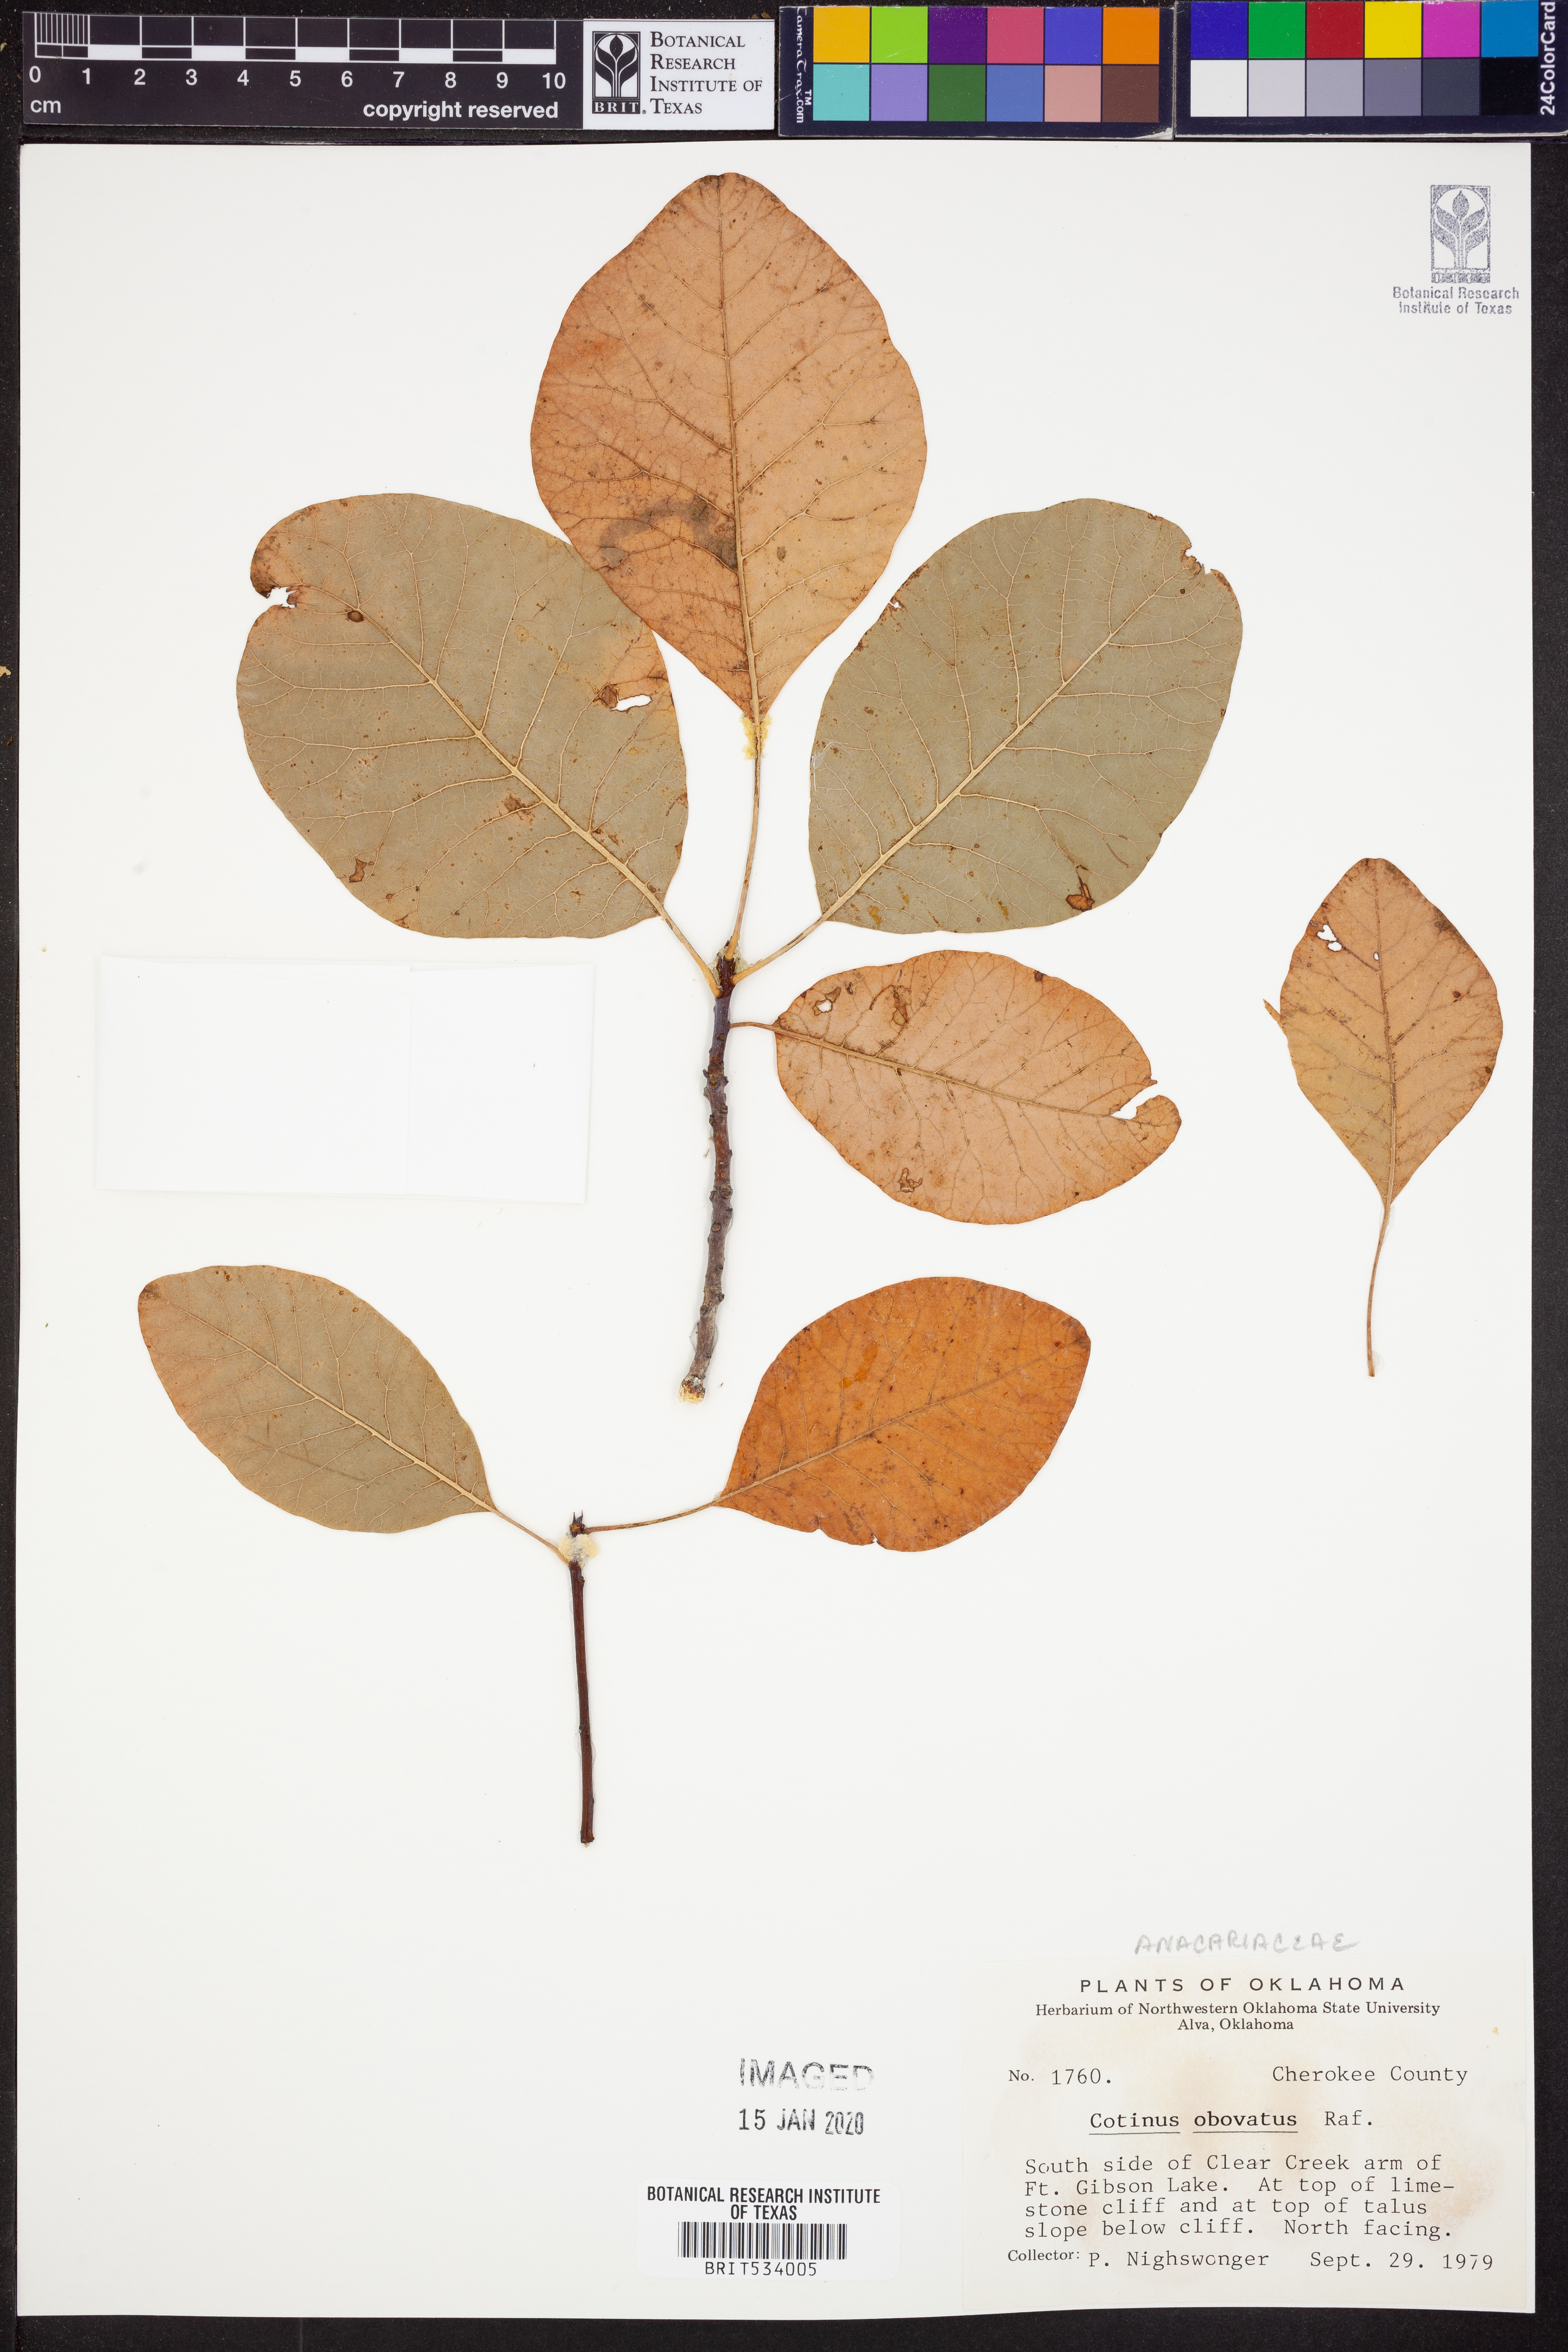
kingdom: Plantae
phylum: Tracheophyta
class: Magnoliopsida
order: Sapindales
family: Anacardiaceae
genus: Cotinus
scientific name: Cotinus obovatus
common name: Chittamwood
